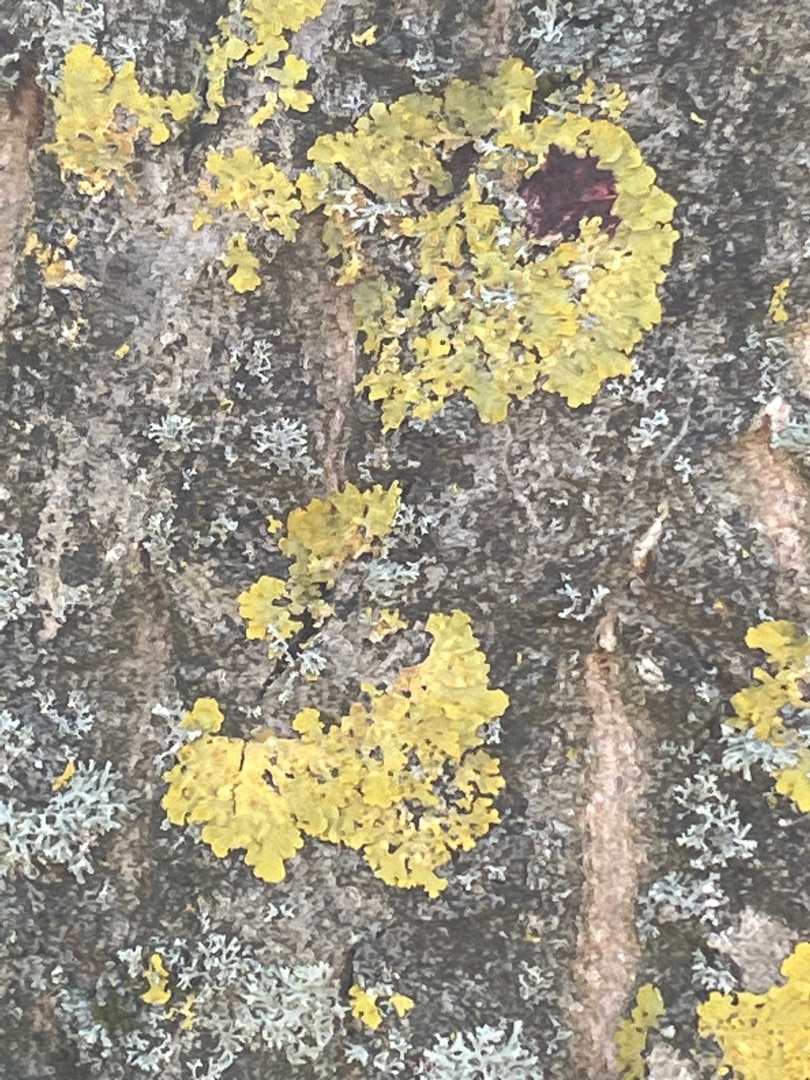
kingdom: Fungi
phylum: Ascomycota
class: Lecanoromycetes
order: Teloschistales
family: Teloschistaceae
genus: Xanthoria
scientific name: Xanthoria parietina
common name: Almindelig væggelav
